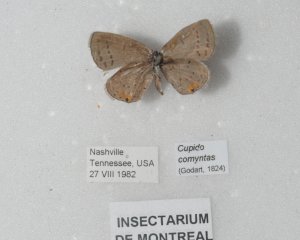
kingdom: Animalia
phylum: Arthropoda
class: Insecta
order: Lepidoptera
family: Lycaenidae
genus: Elkalyce
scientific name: Elkalyce comyntas
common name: Eastern Tailed-Blue
